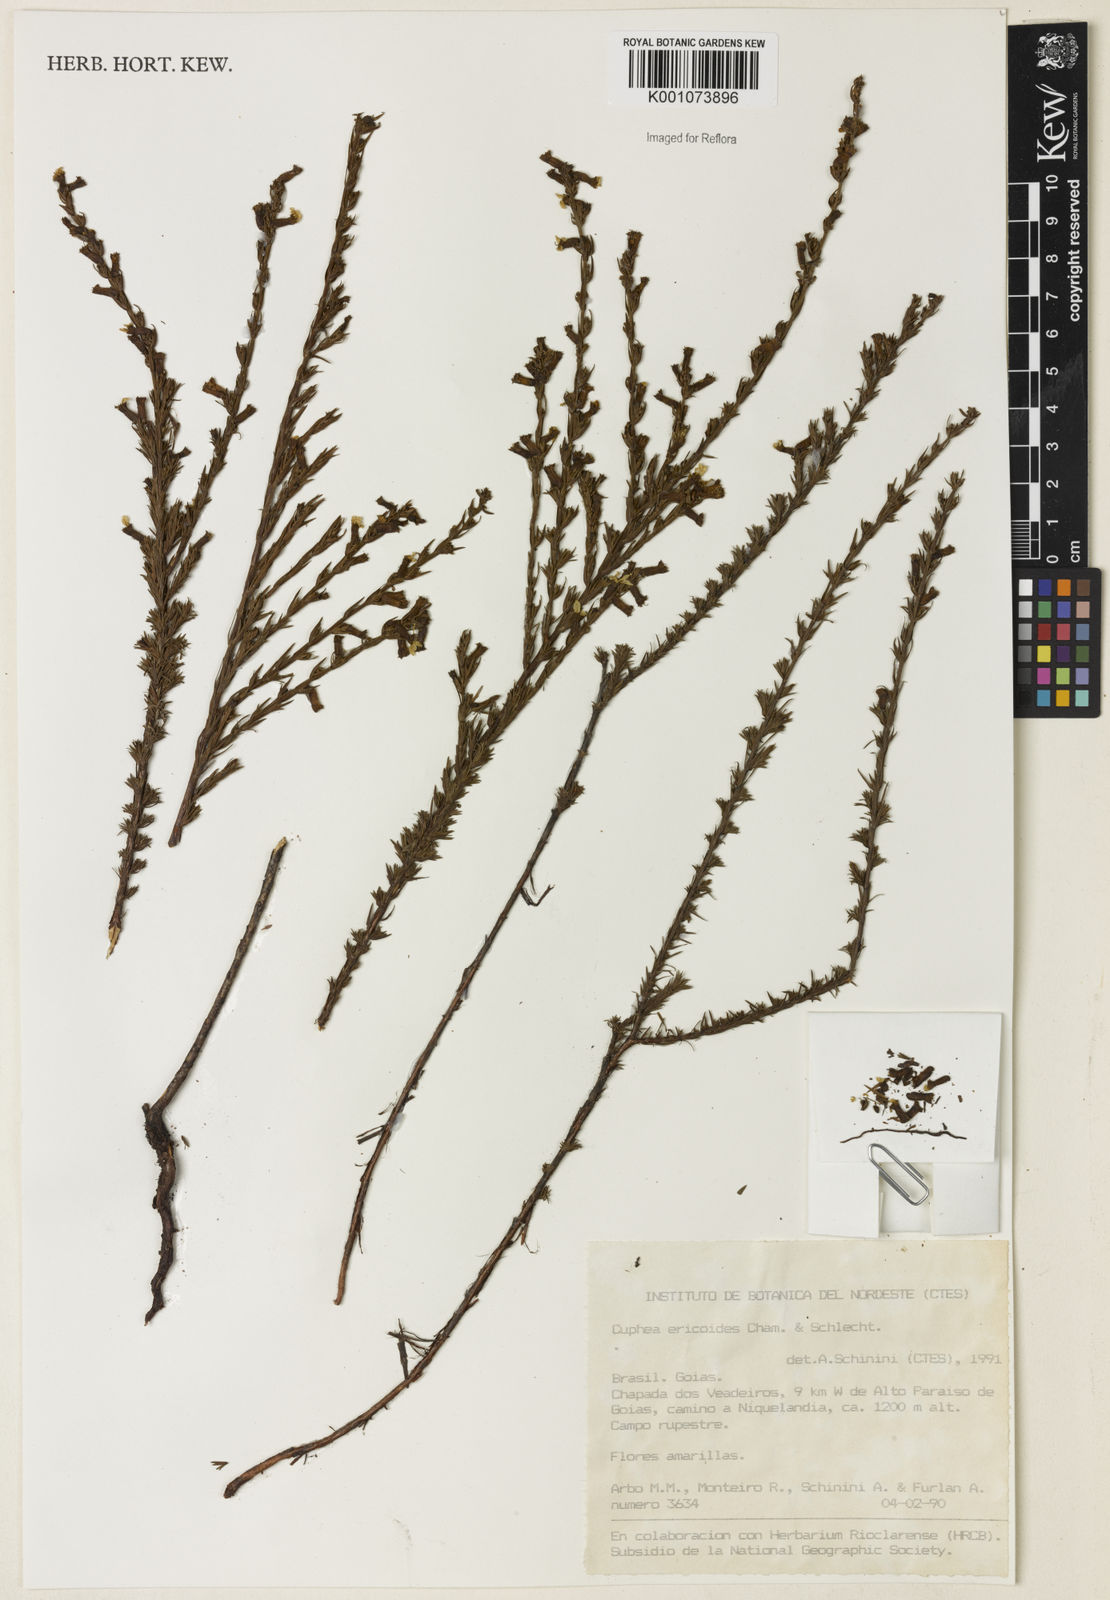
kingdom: Plantae
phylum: Tracheophyta
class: Magnoliopsida
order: Myrtales
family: Lythraceae
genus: Cuphea
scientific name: Cuphea ericoides
